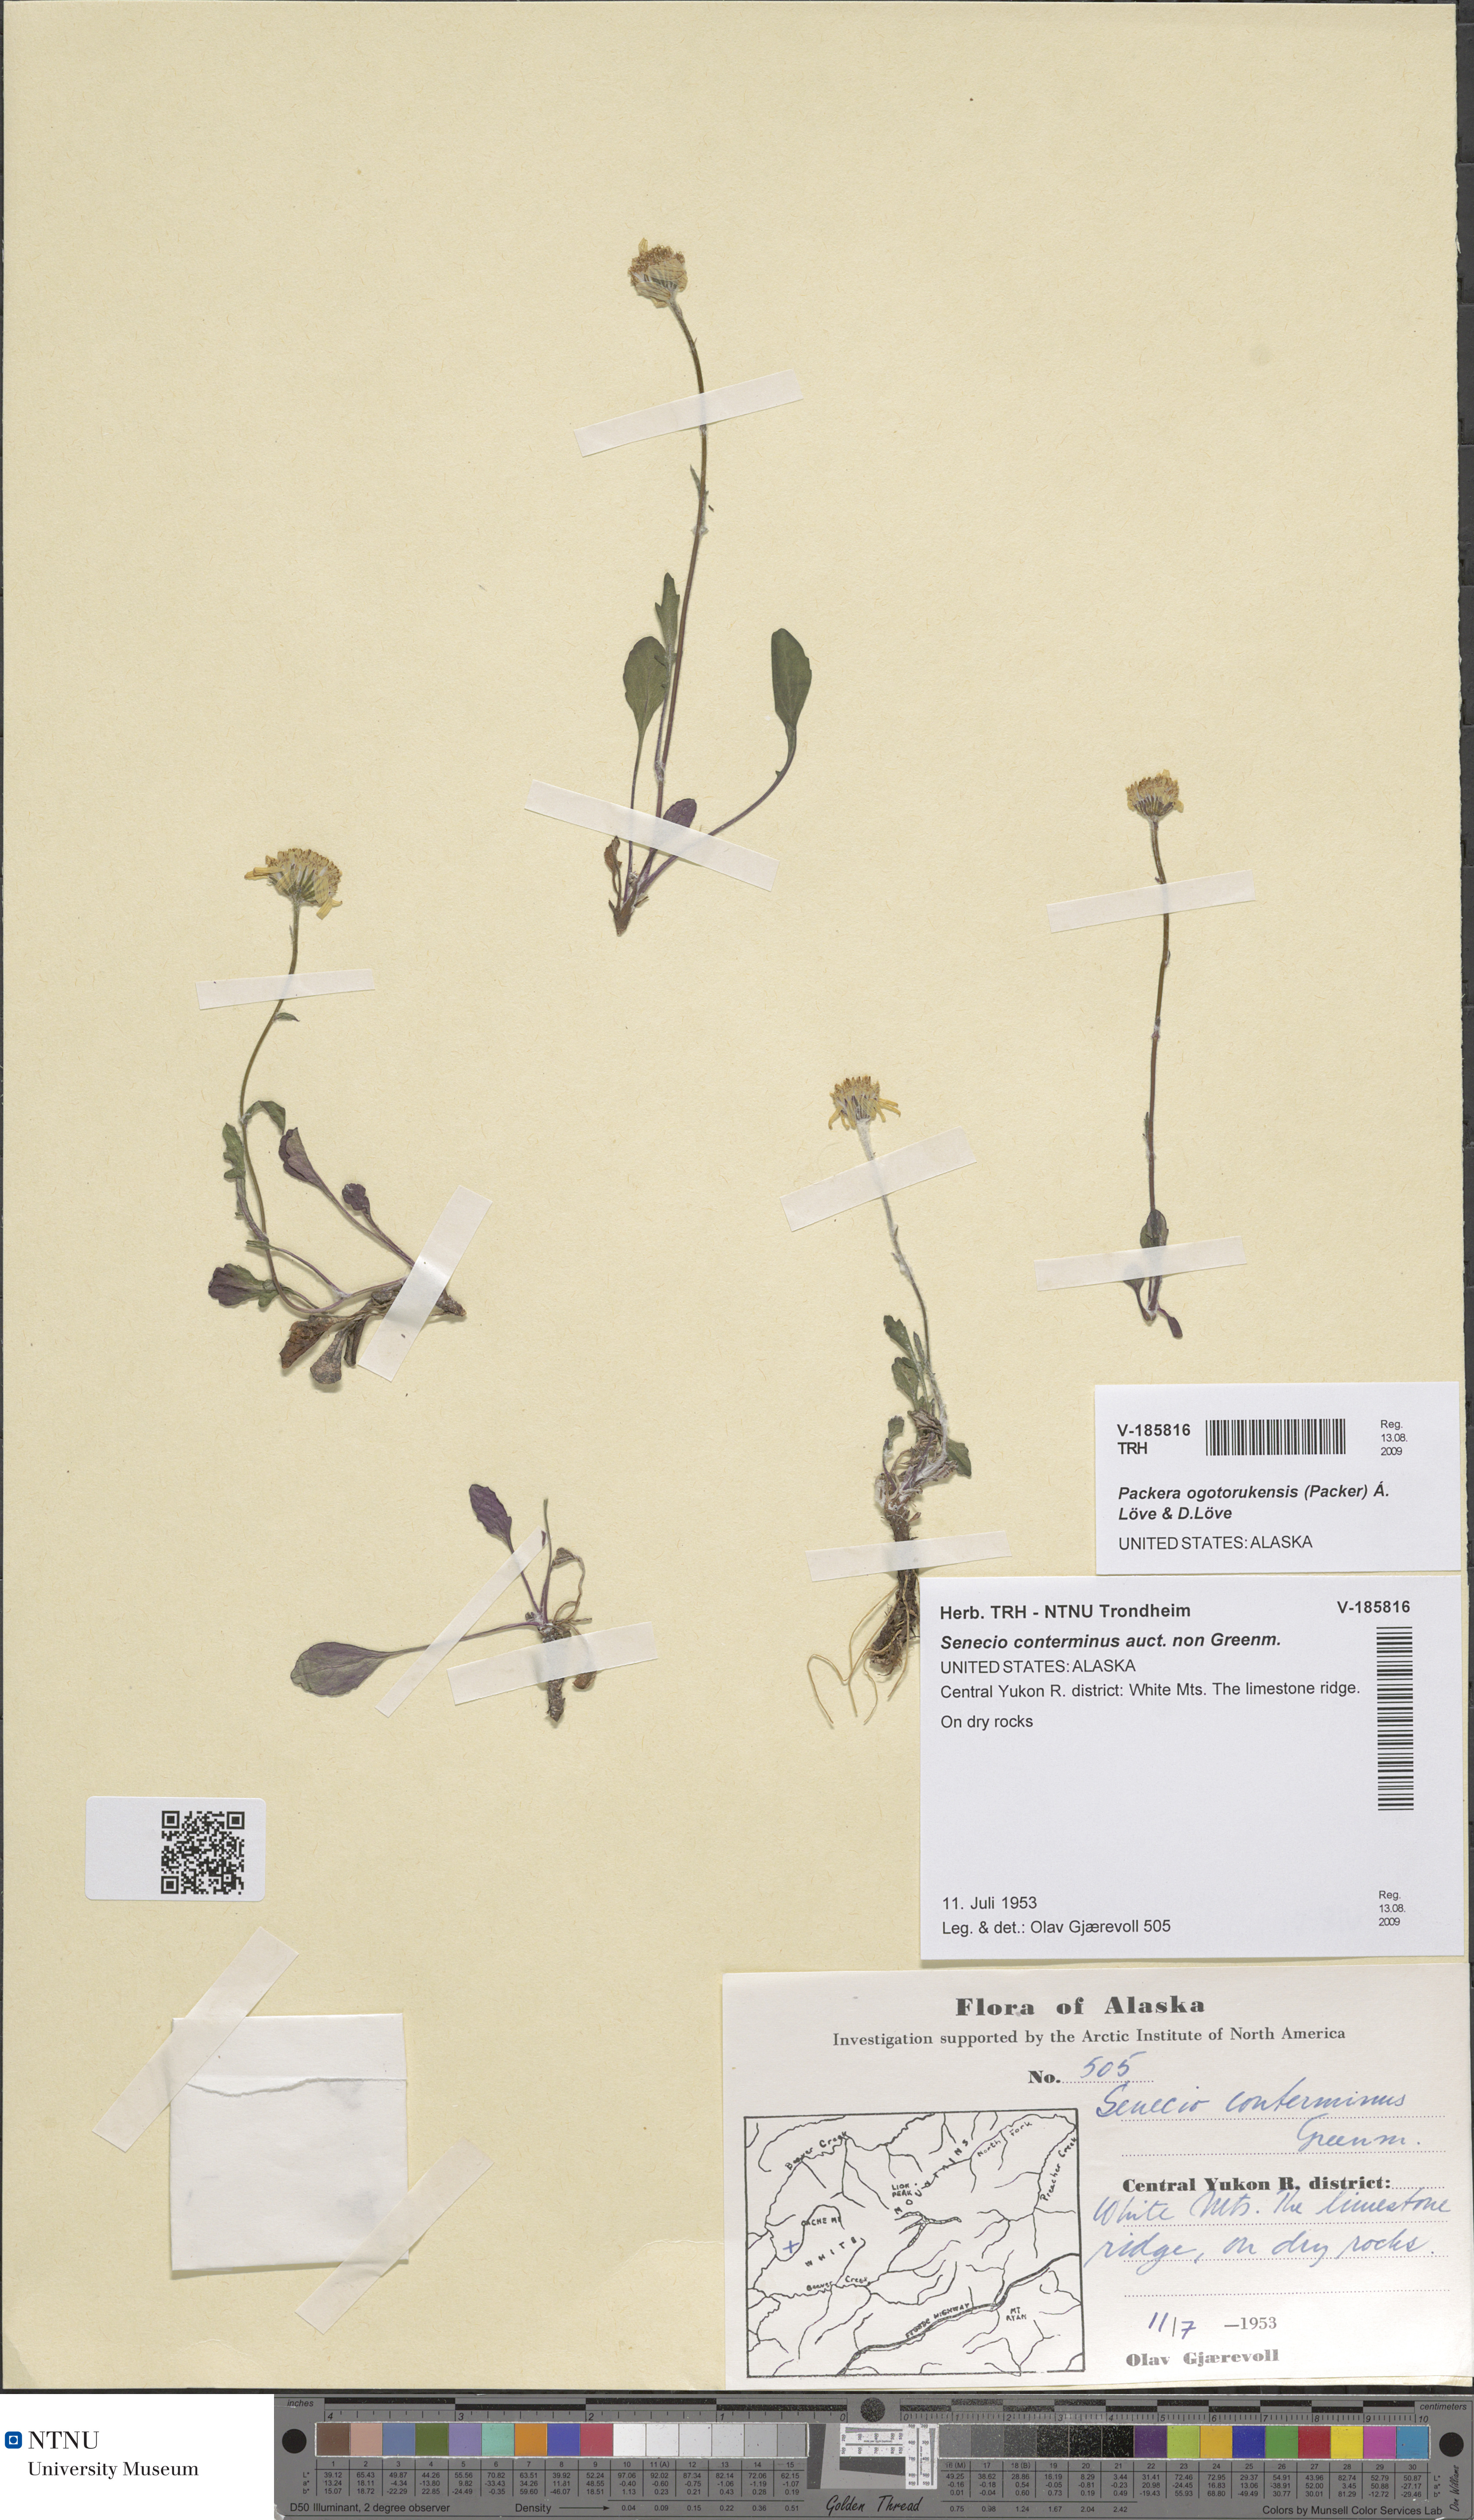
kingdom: Plantae
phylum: Tracheophyta
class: Magnoliopsida
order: Asterales
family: Asteraceae
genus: Packera
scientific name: Packera ogotorukensis
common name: Ogotoruk creek butterweed
